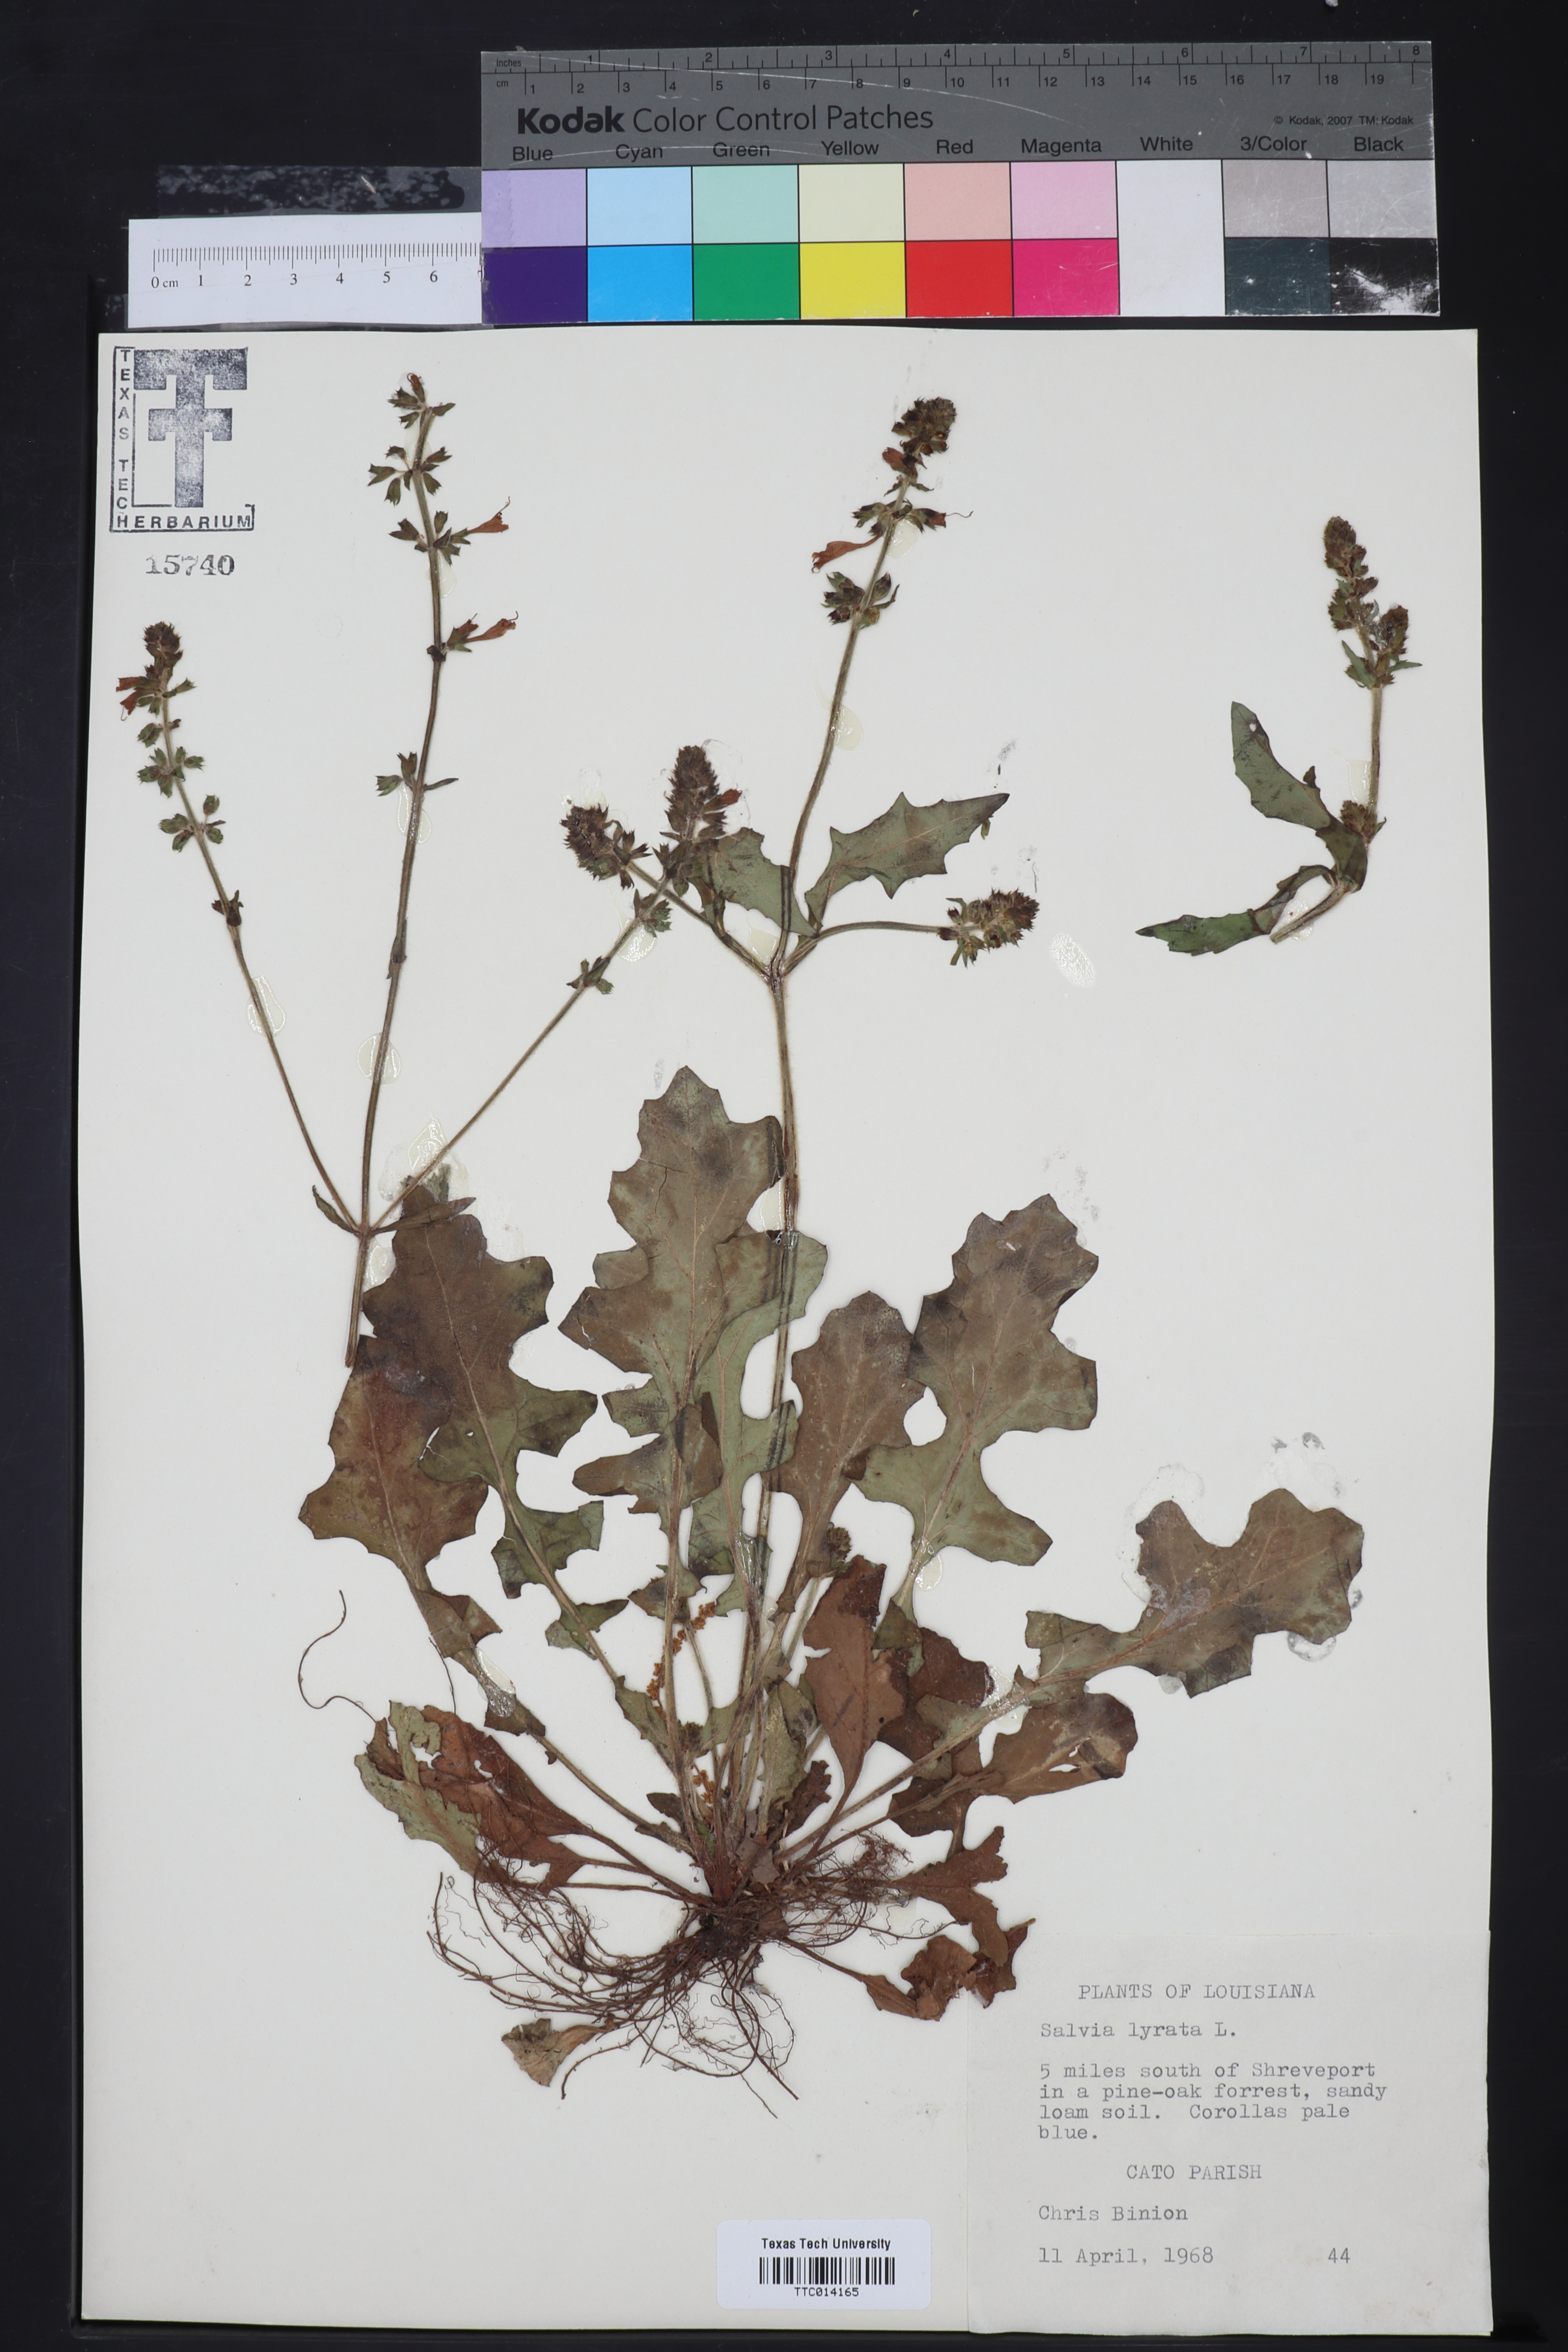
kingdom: Plantae
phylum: Tracheophyta
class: Magnoliopsida
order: Lamiales
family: Lamiaceae
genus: Salvia
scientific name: Salvia lyrata
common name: Cancerweed
